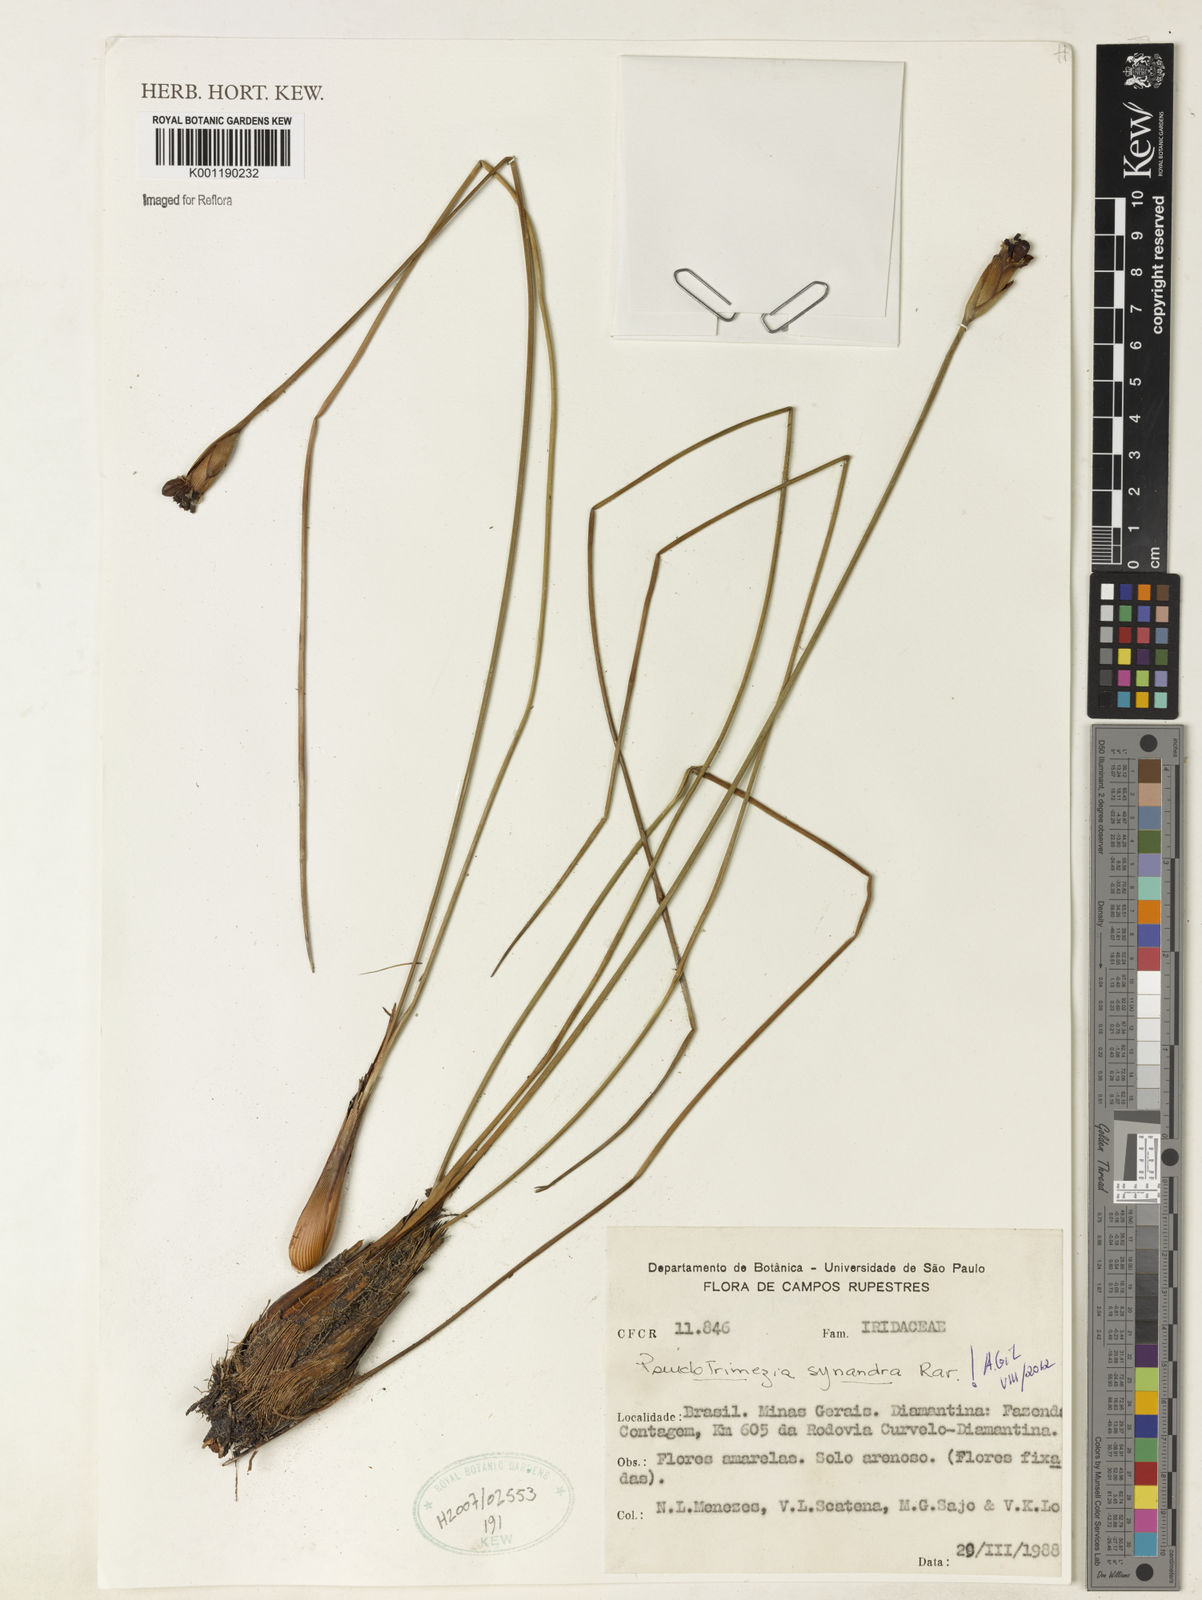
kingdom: Plantae
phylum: Tracheophyta
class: Liliopsida
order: Asparagales
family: Iridaceae
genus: Trimezia
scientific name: Trimezia
